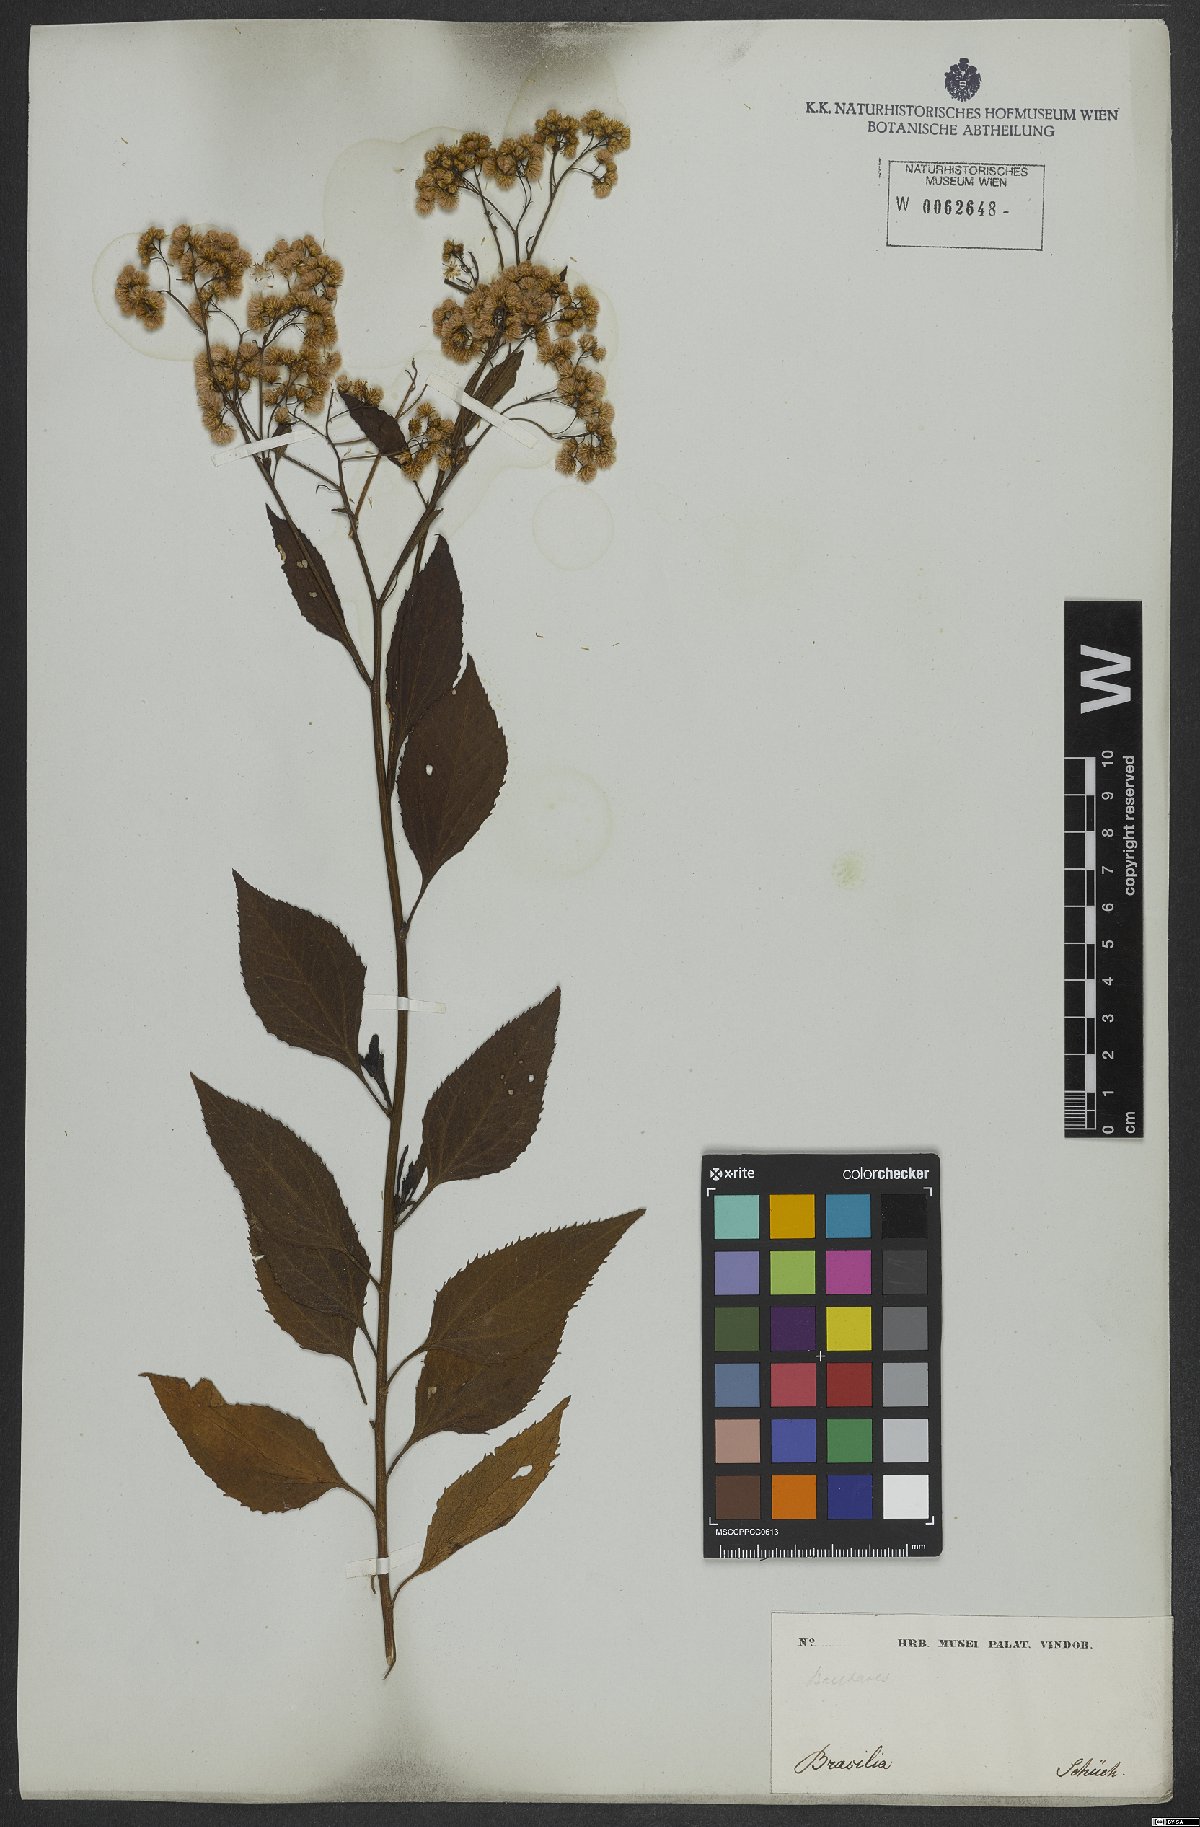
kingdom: Plantae
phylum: Tracheophyta
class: Magnoliopsida
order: Asterales
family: Asteraceae
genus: Archibaccharis
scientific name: Archibaccharis vulneraria
